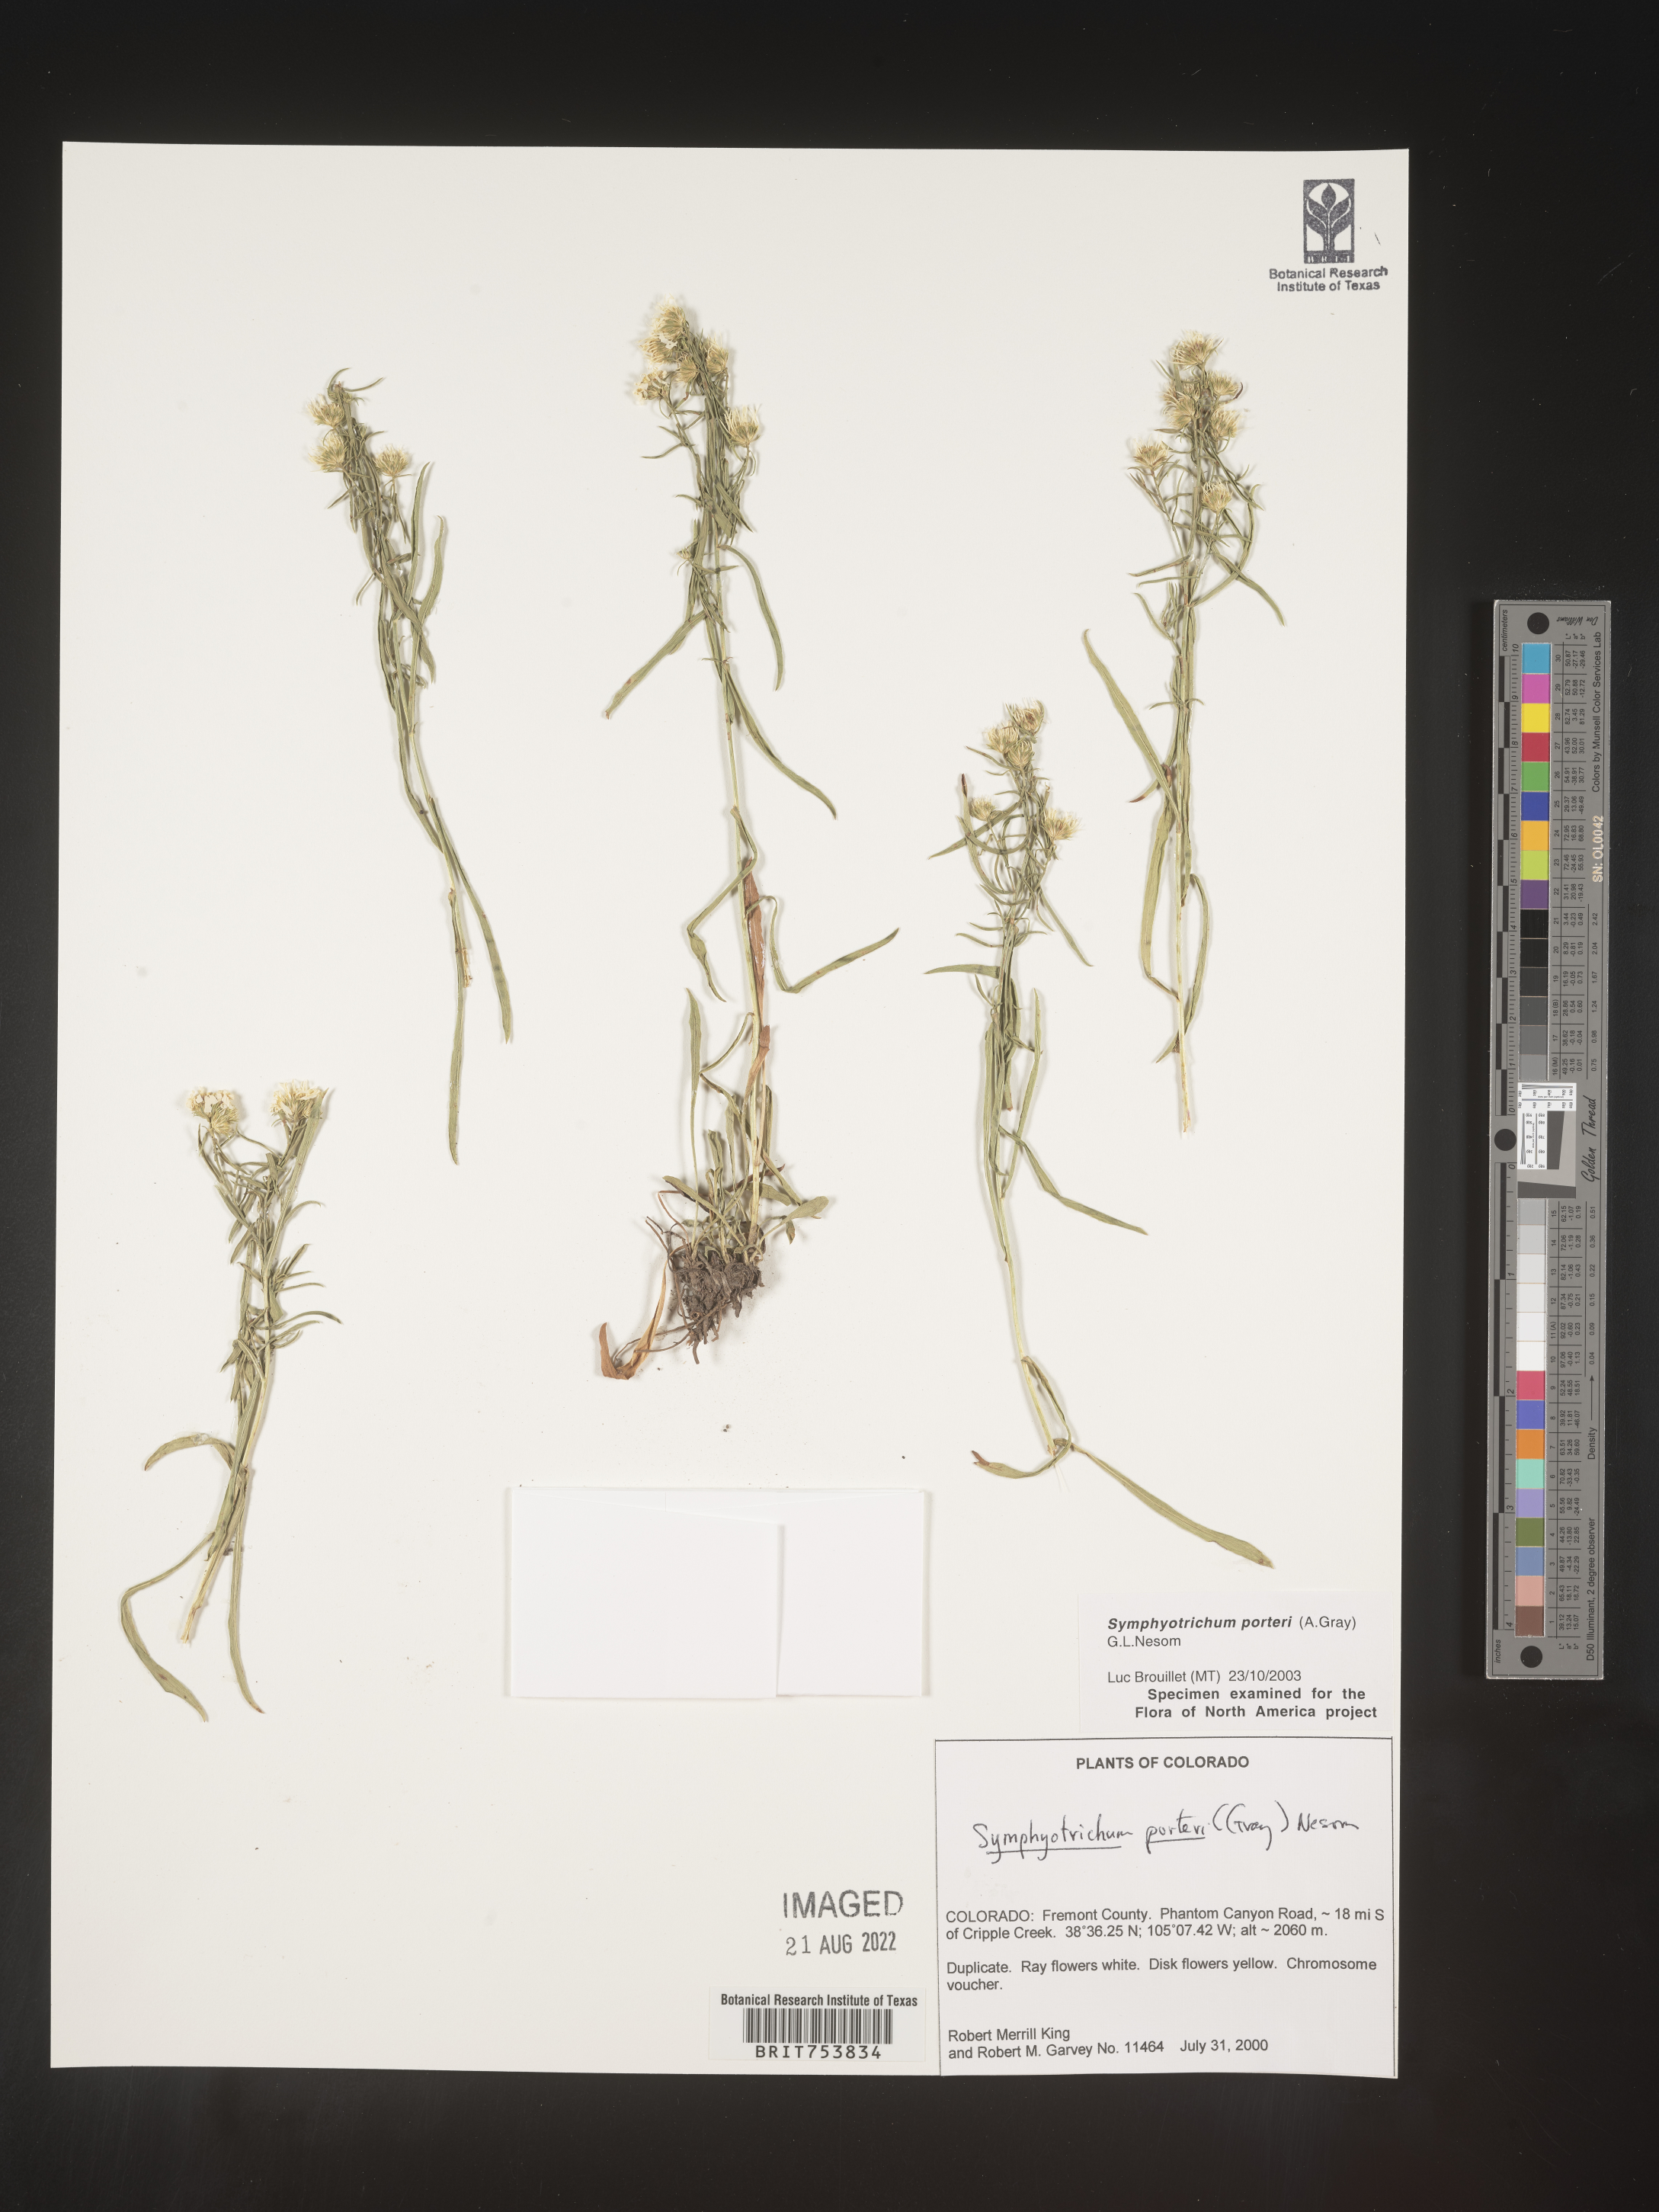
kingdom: Plantae
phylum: Tracheophyta
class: Magnoliopsida
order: Asterales
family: Asteraceae
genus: Symphyotrichum
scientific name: Symphyotrichum porteri
